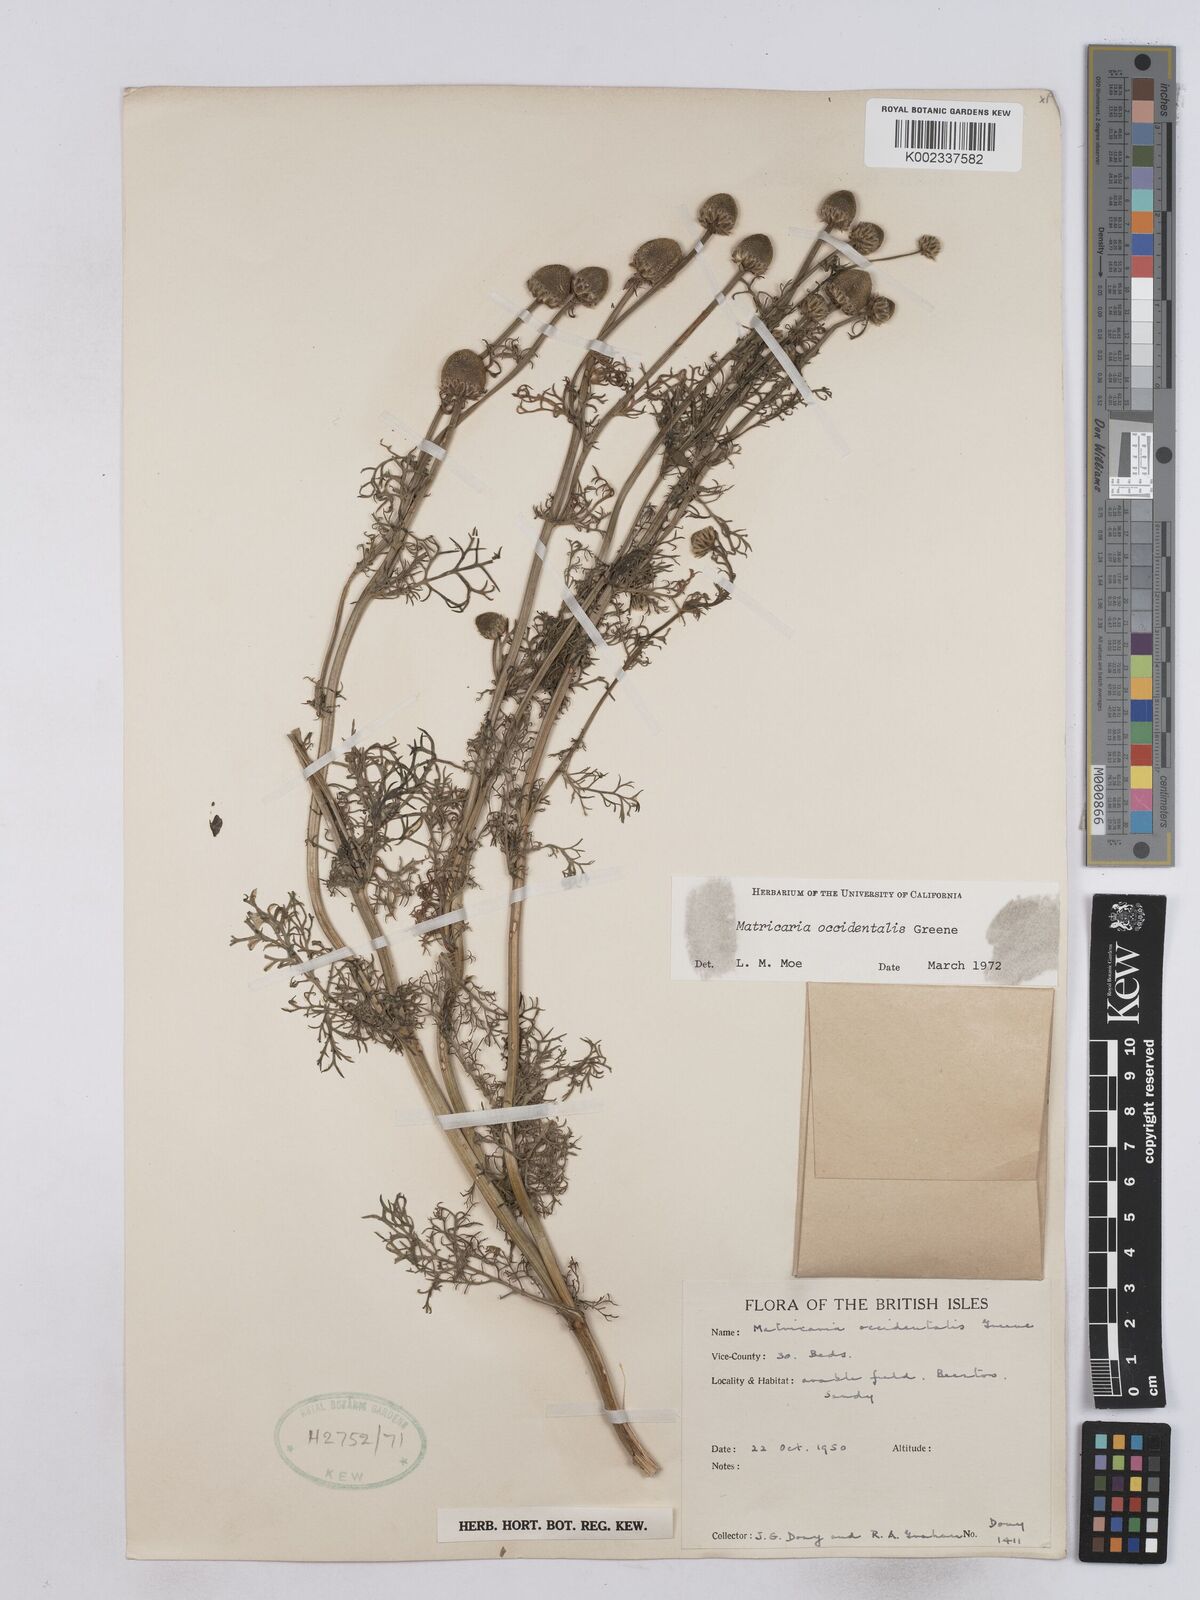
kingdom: Plantae
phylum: Tracheophyta
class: Magnoliopsida
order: Asterales
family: Asteraceae
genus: Matricaria
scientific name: Matricaria discoidea
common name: Disc mayweed
